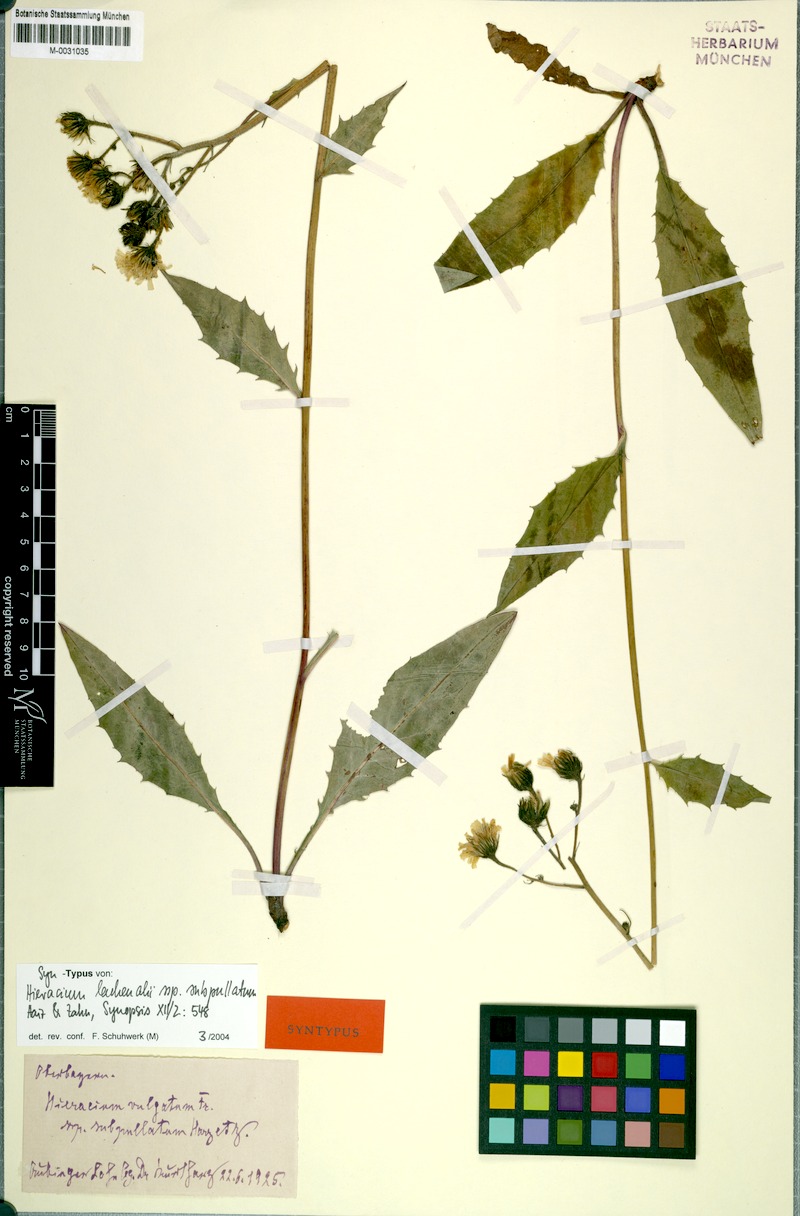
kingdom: Plantae
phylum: Tracheophyta
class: Magnoliopsida
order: Asterales
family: Asteraceae
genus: Hieracium
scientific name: Hieracium lachenalii
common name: Common hawkweed
